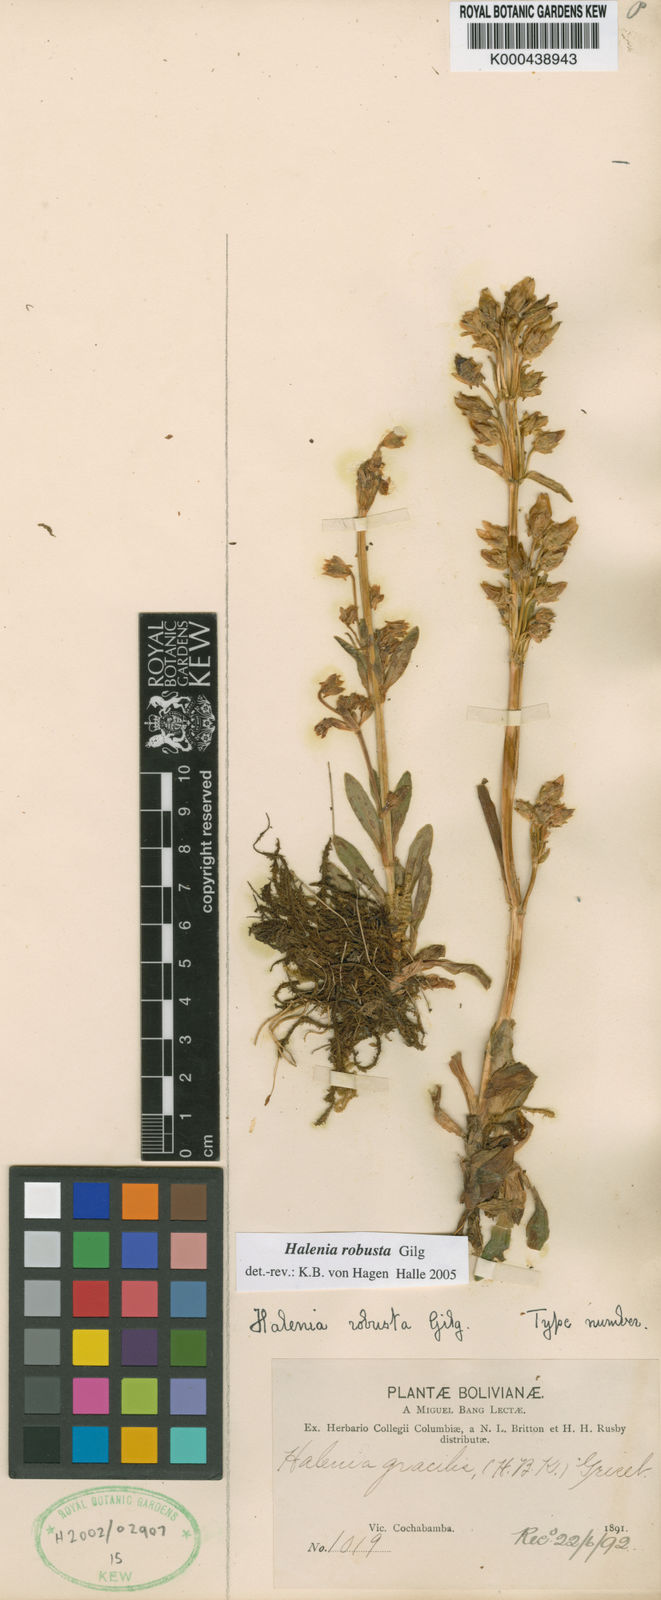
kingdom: Plantae
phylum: Tracheophyta
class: Magnoliopsida
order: Gentianales
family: Gentianaceae
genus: Halenia
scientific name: Halenia robusta
